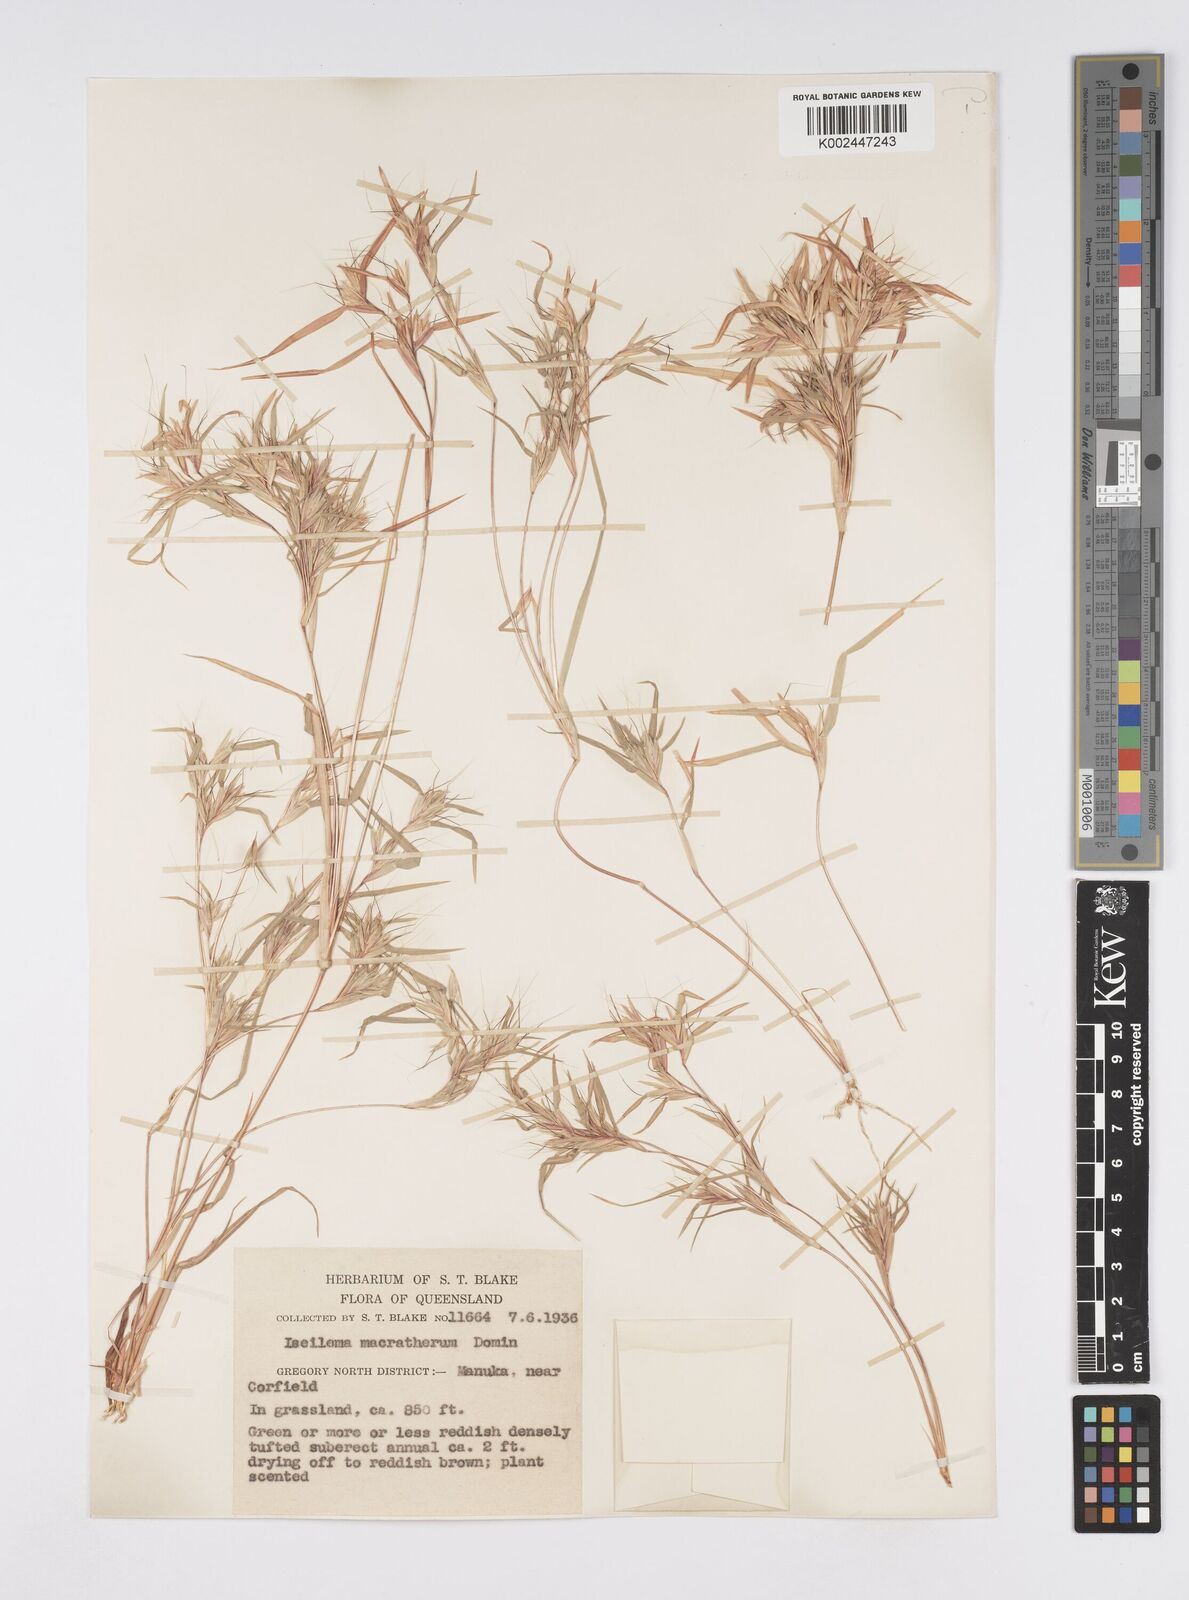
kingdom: Plantae
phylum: Tracheophyta
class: Liliopsida
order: Poales
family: Poaceae
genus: Iseilema
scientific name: Iseilema macratherum
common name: Bull flinders grass
